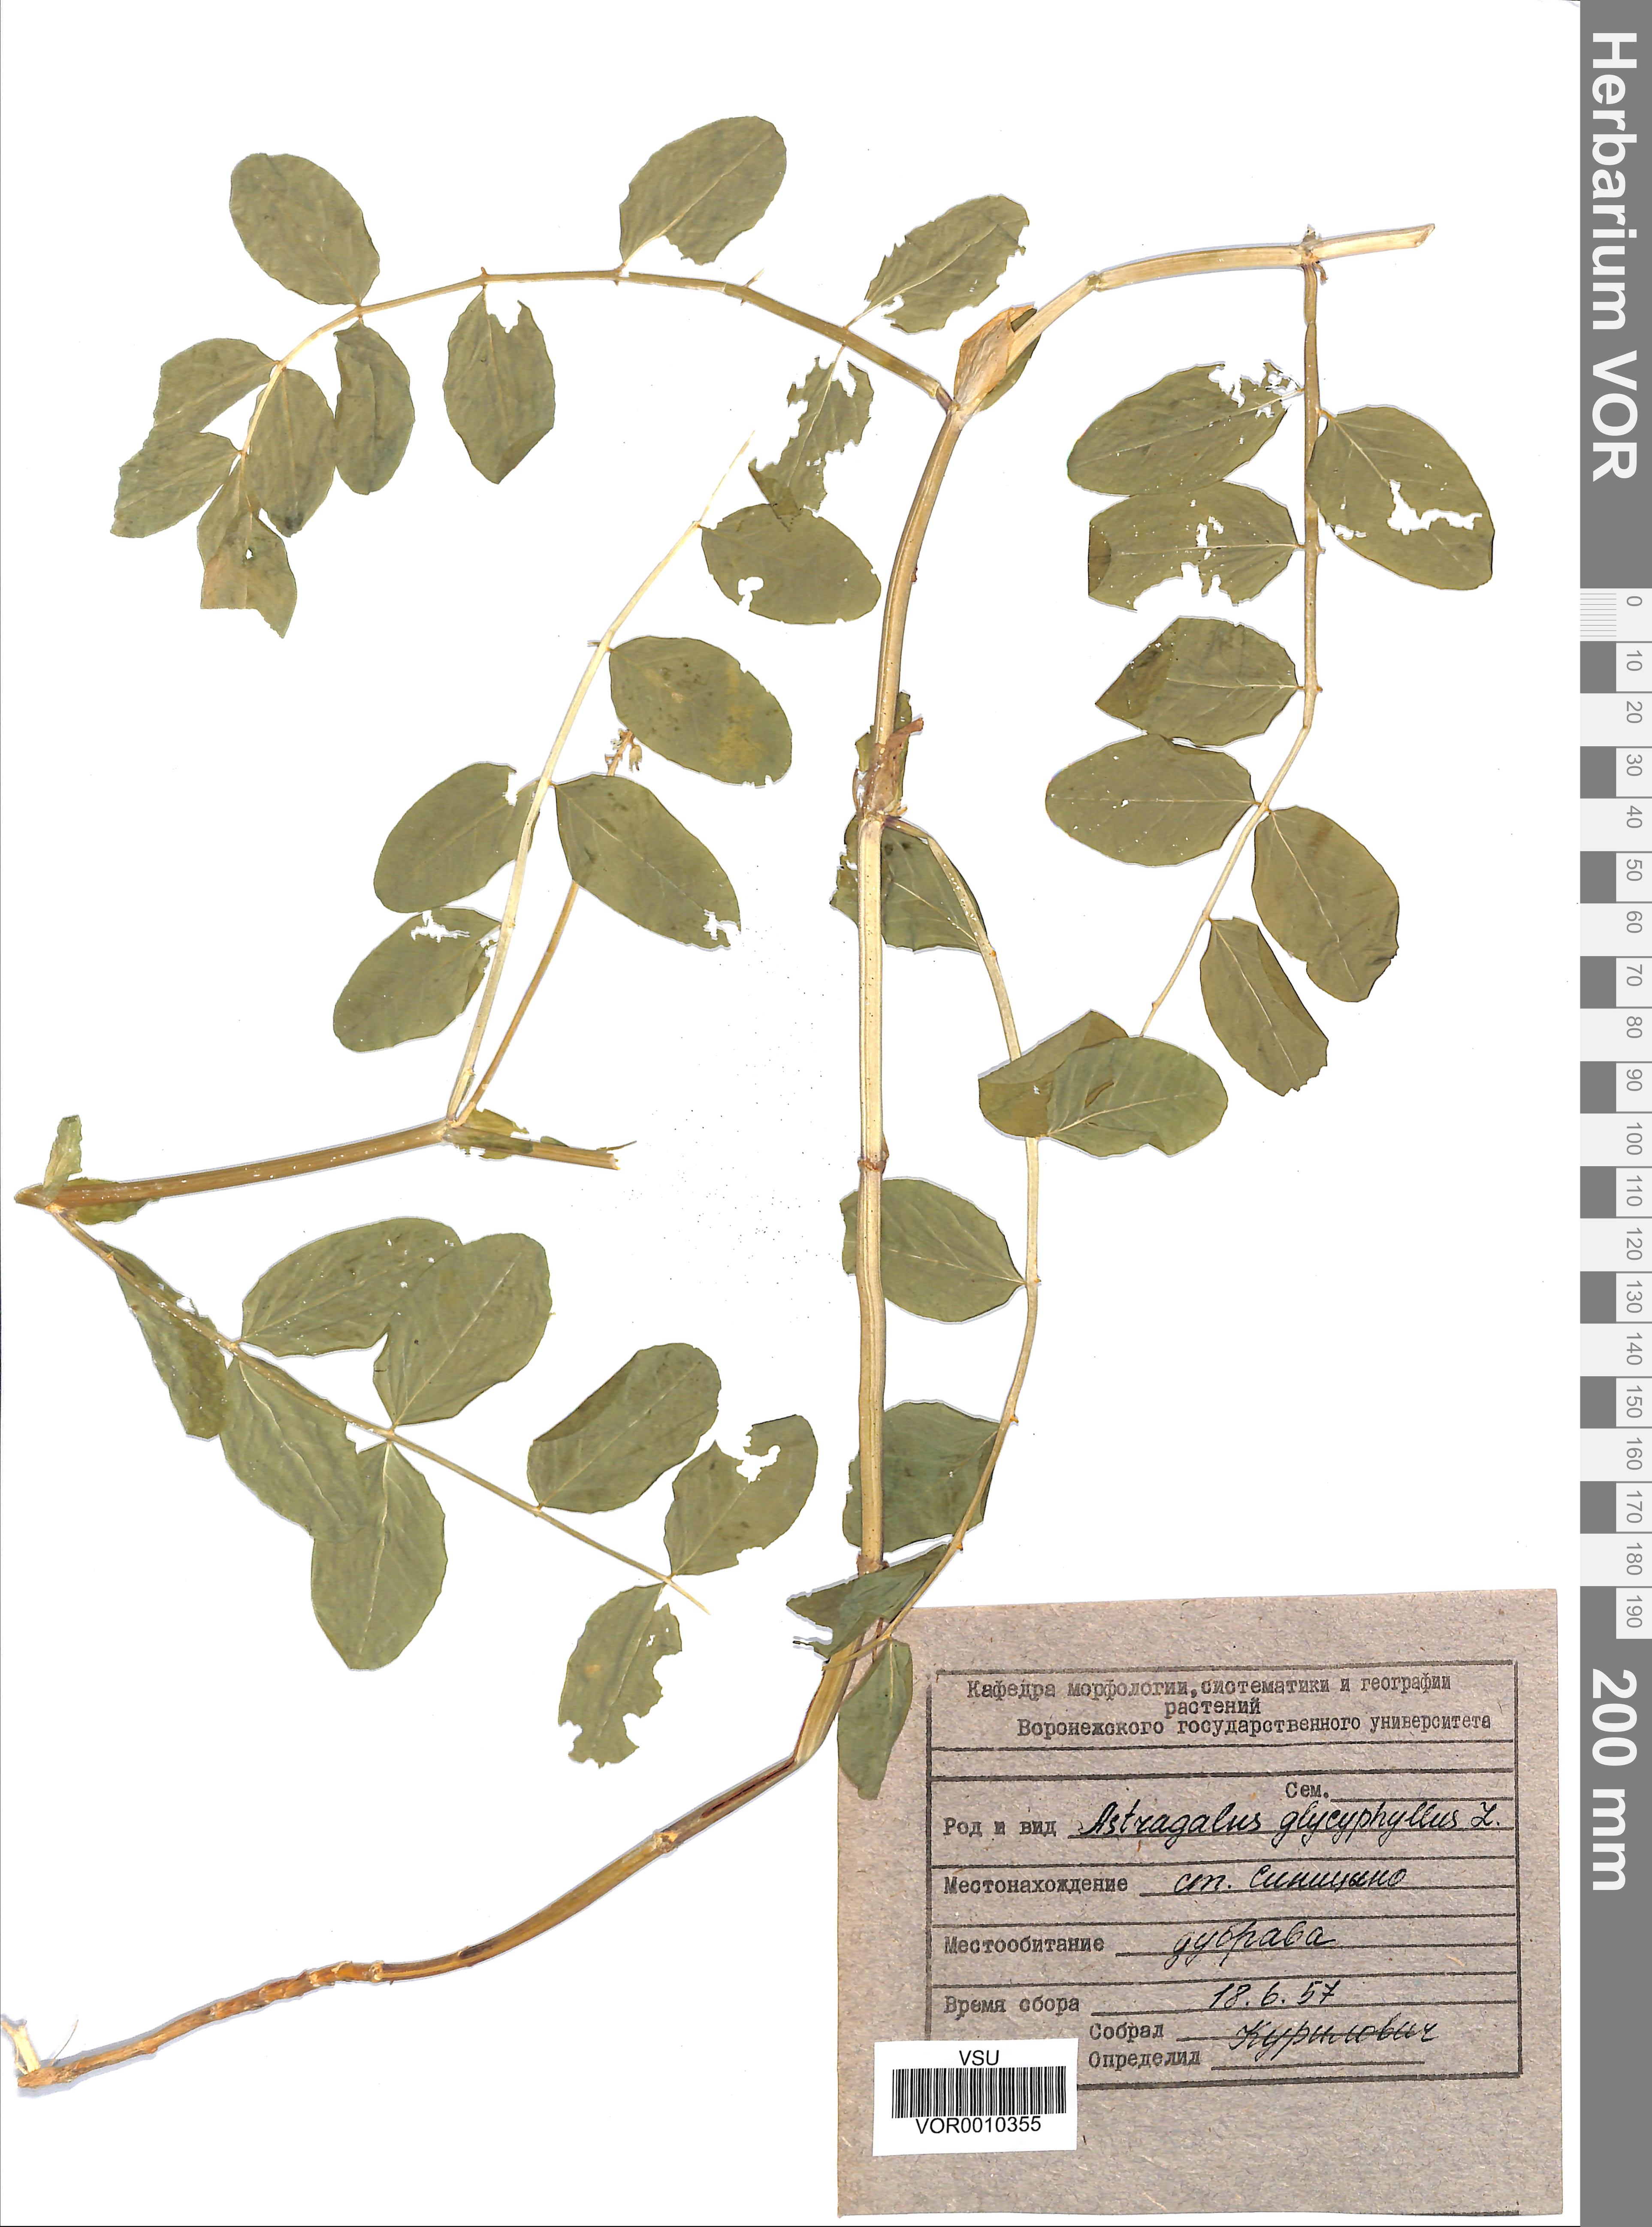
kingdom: Plantae
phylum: Tracheophyta
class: Magnoliopsida
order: Fabales
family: Fabaceae
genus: Astragalus
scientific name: Astragalus glycyphyllos
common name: Wild liquorice
